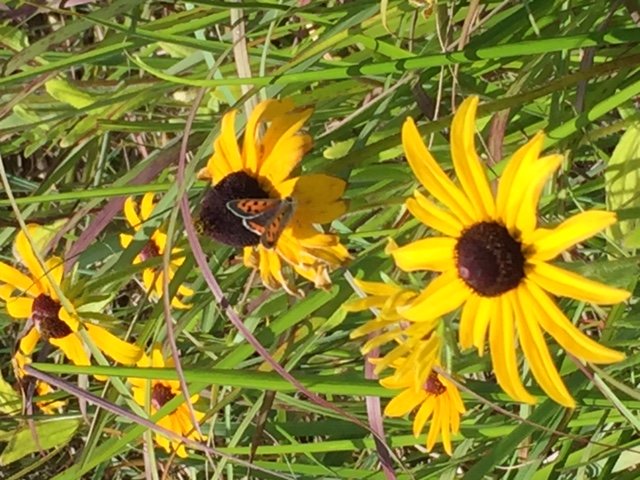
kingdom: Animalia
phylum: Arthropoda
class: Insecta
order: Lepidoptera
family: Lycaenidae
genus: Lycaena
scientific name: Lycaena phlaeas
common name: American Copper
